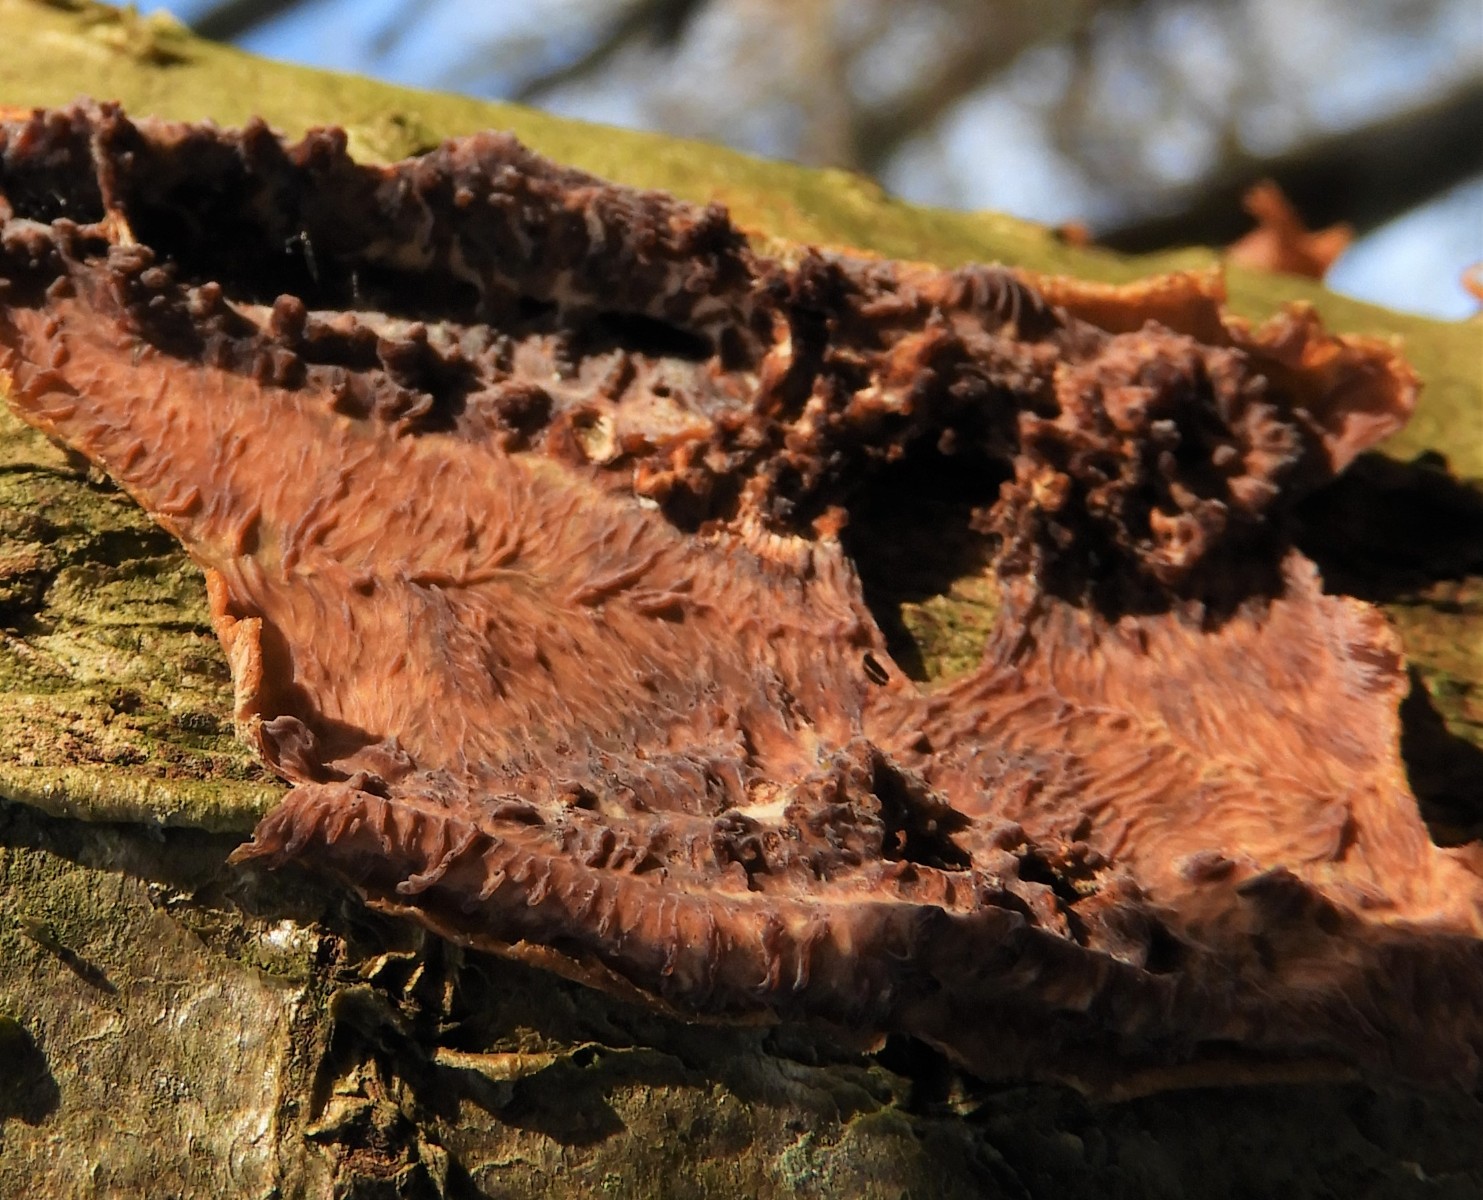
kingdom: Fungi
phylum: Basidiomycota
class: Agaricomycetes
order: Polyporales
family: Meruliaceae
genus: Phlebia
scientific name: Phlebia radiata
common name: stråle-åresvamp
